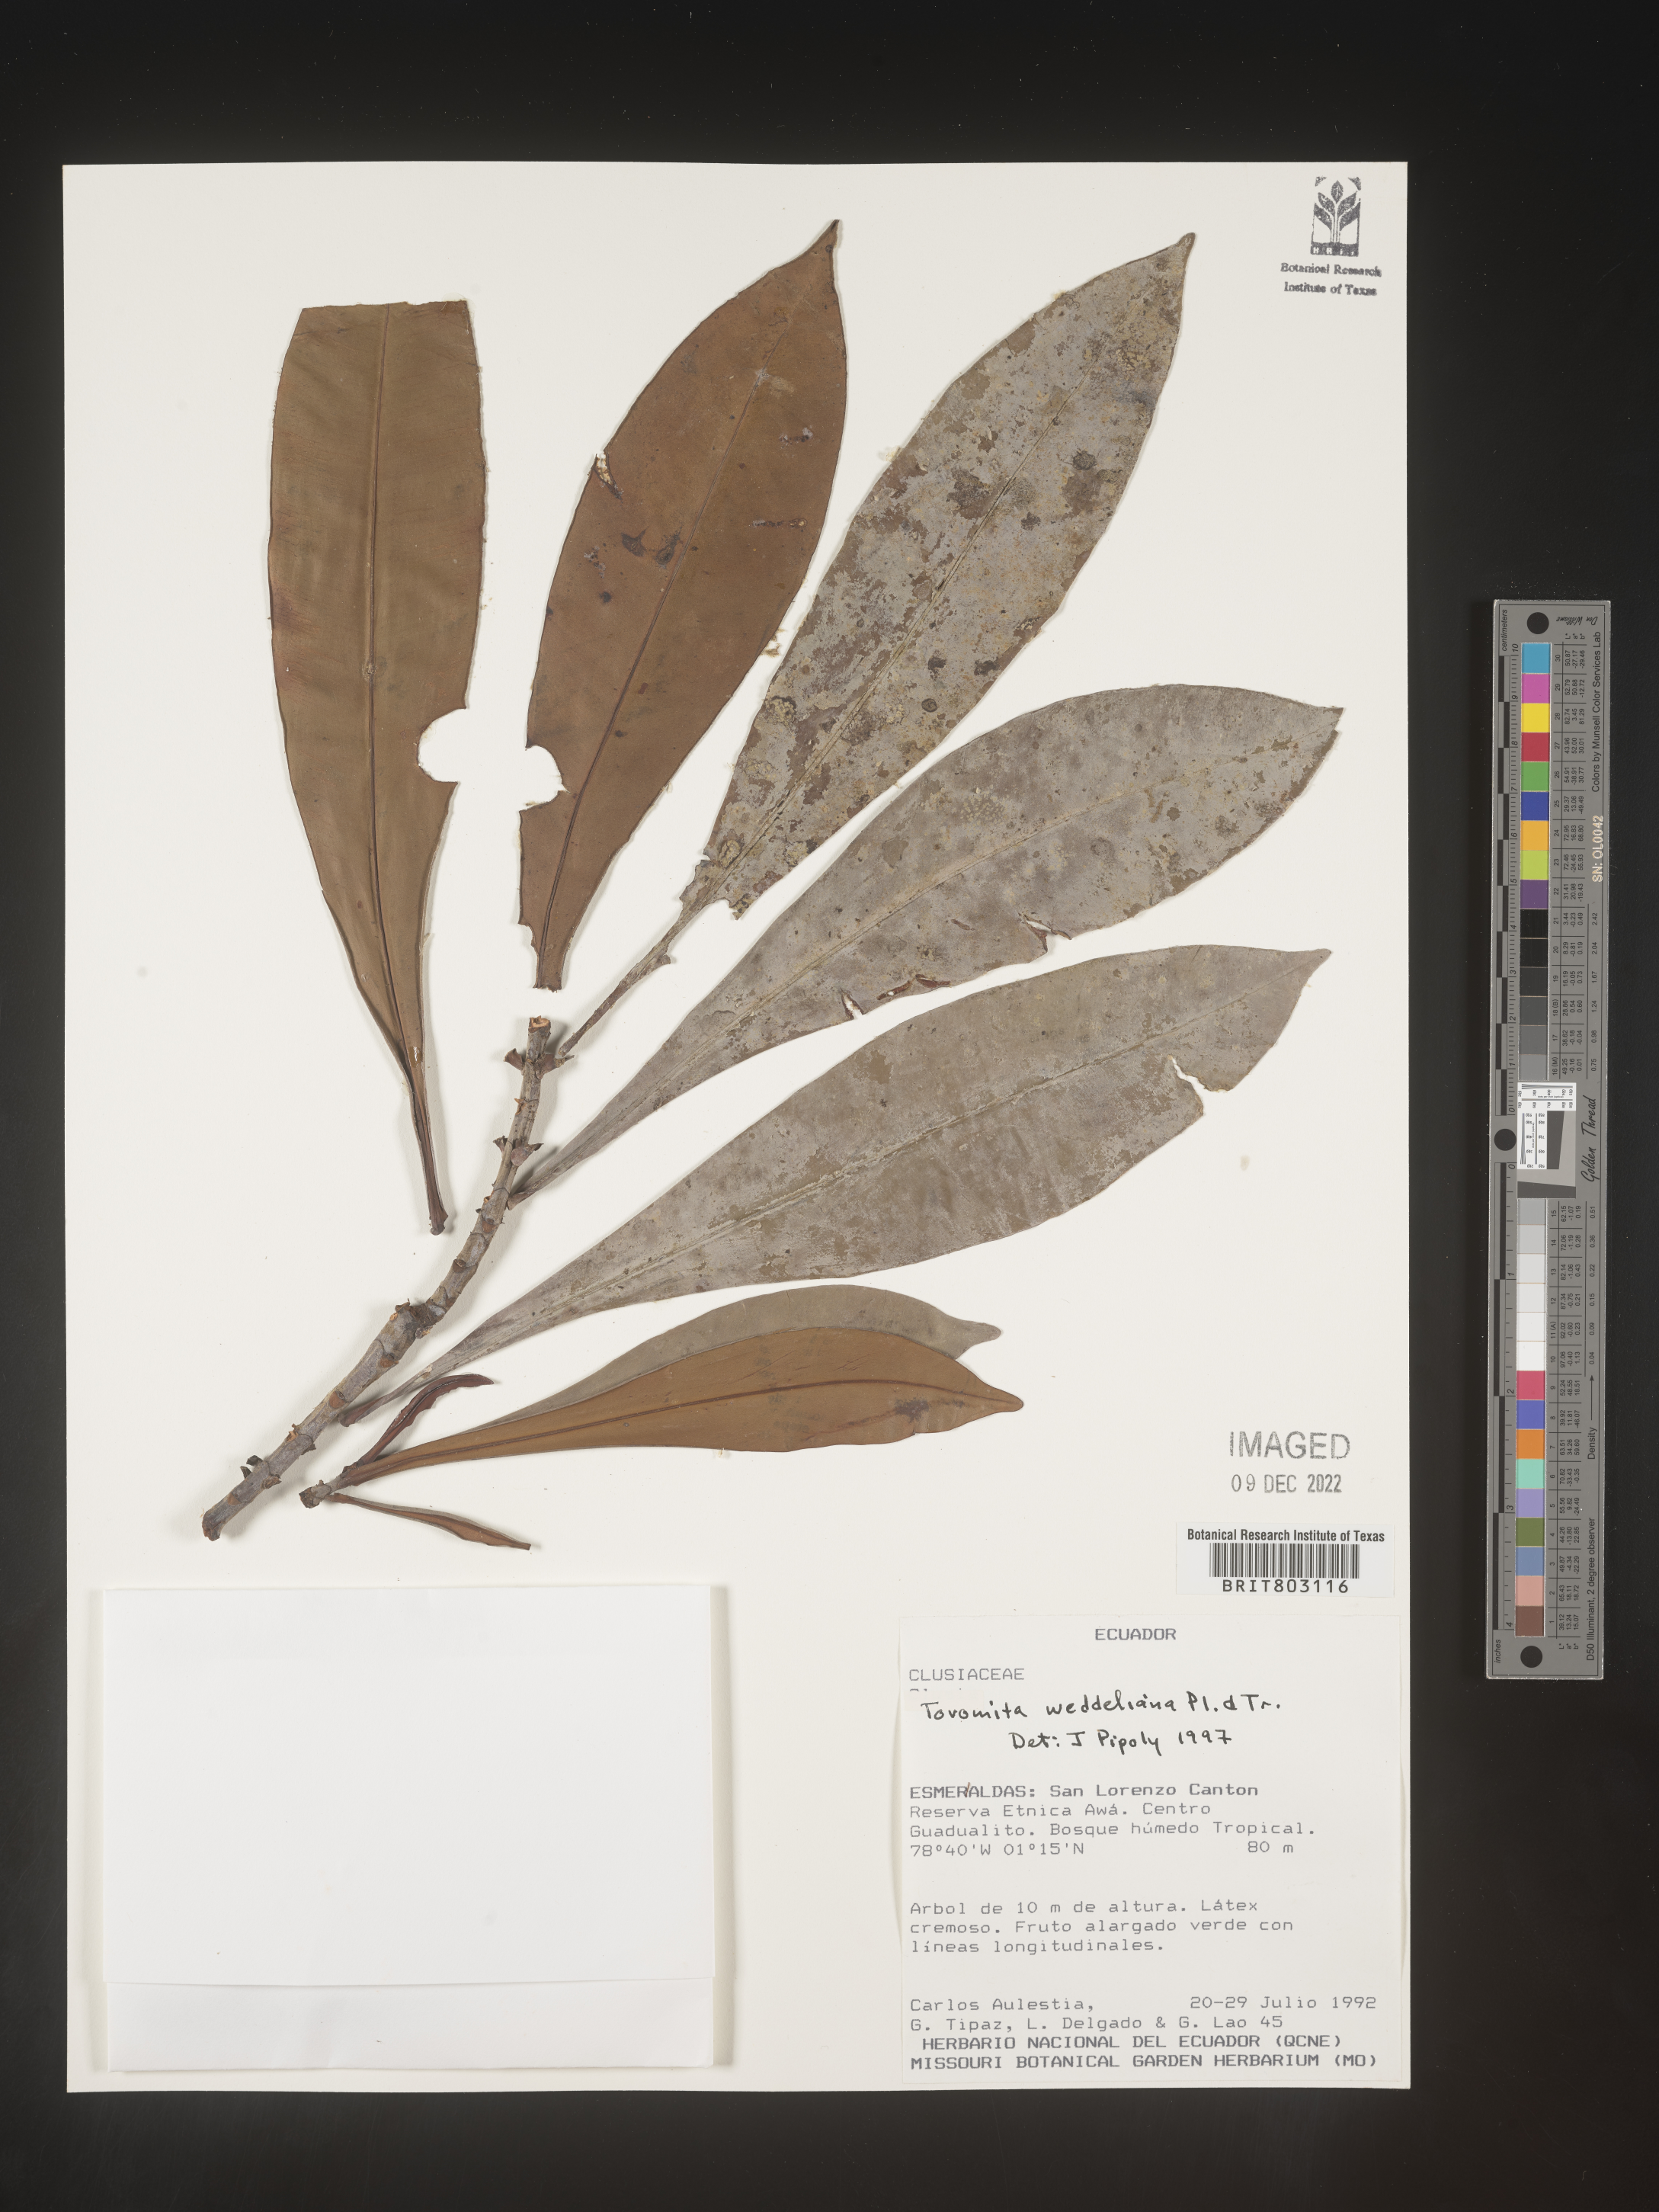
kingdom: Plantae
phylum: Tracheophyta
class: Magnoliopsida
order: Malpighiales
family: Clusiaceae
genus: Arawakia
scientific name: Arawakia weddelliana
